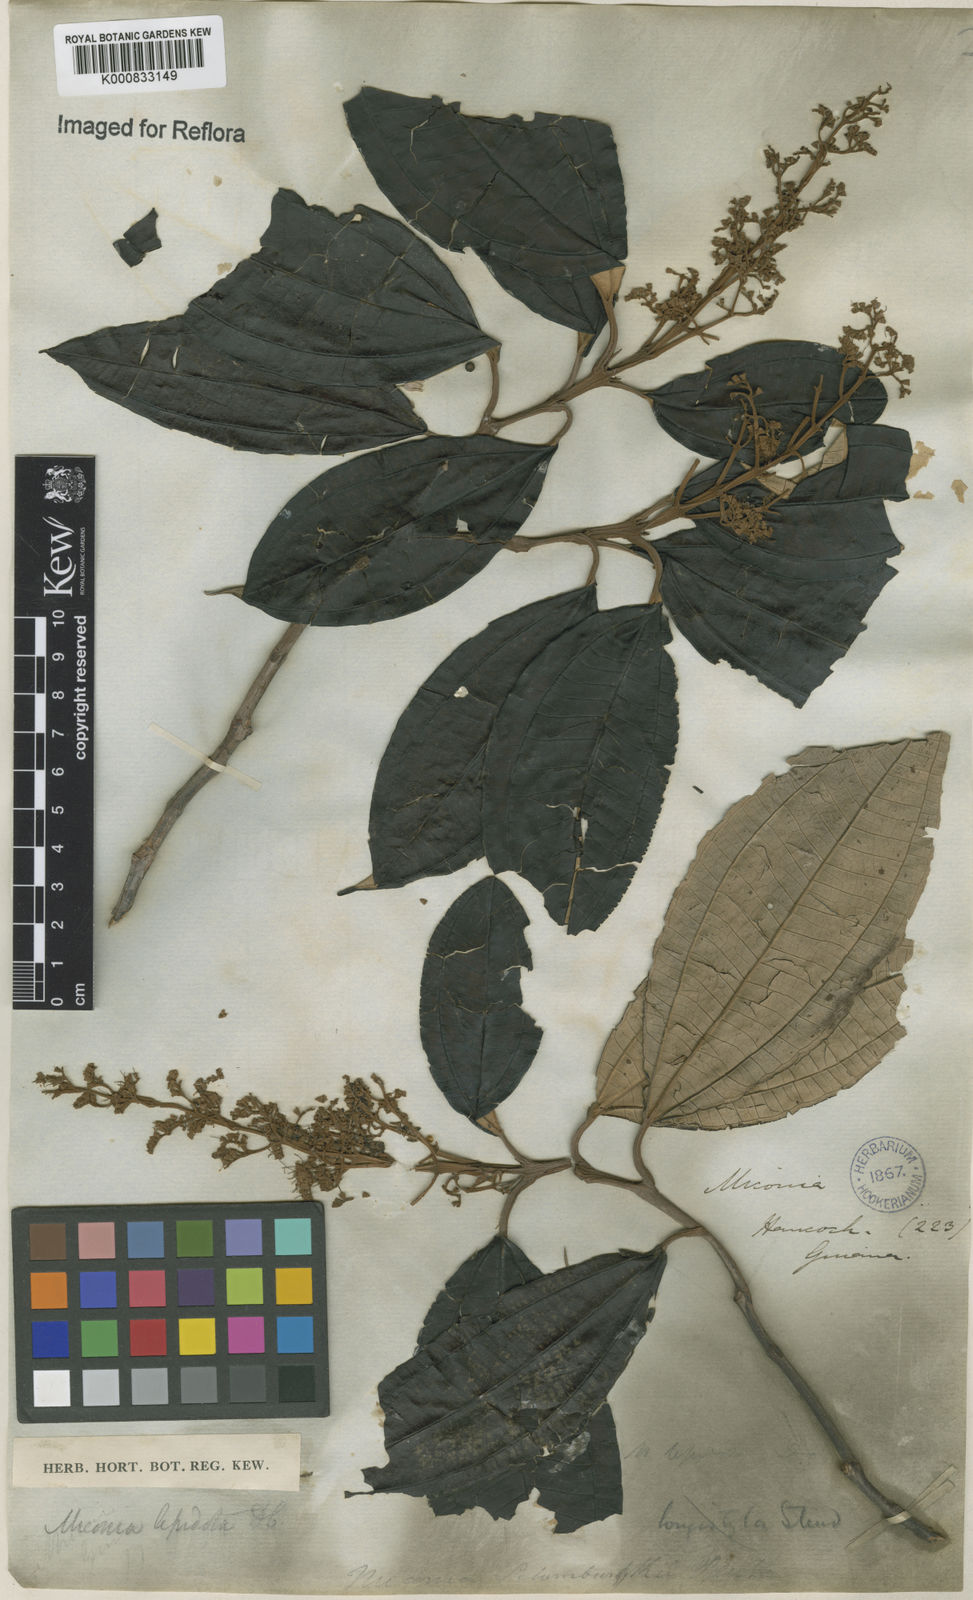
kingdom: Plantae
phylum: Tracheophyta
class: Magnoliopsida
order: Myrtales
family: Melastomataceae
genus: Miconia
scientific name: Miconia lepidota
